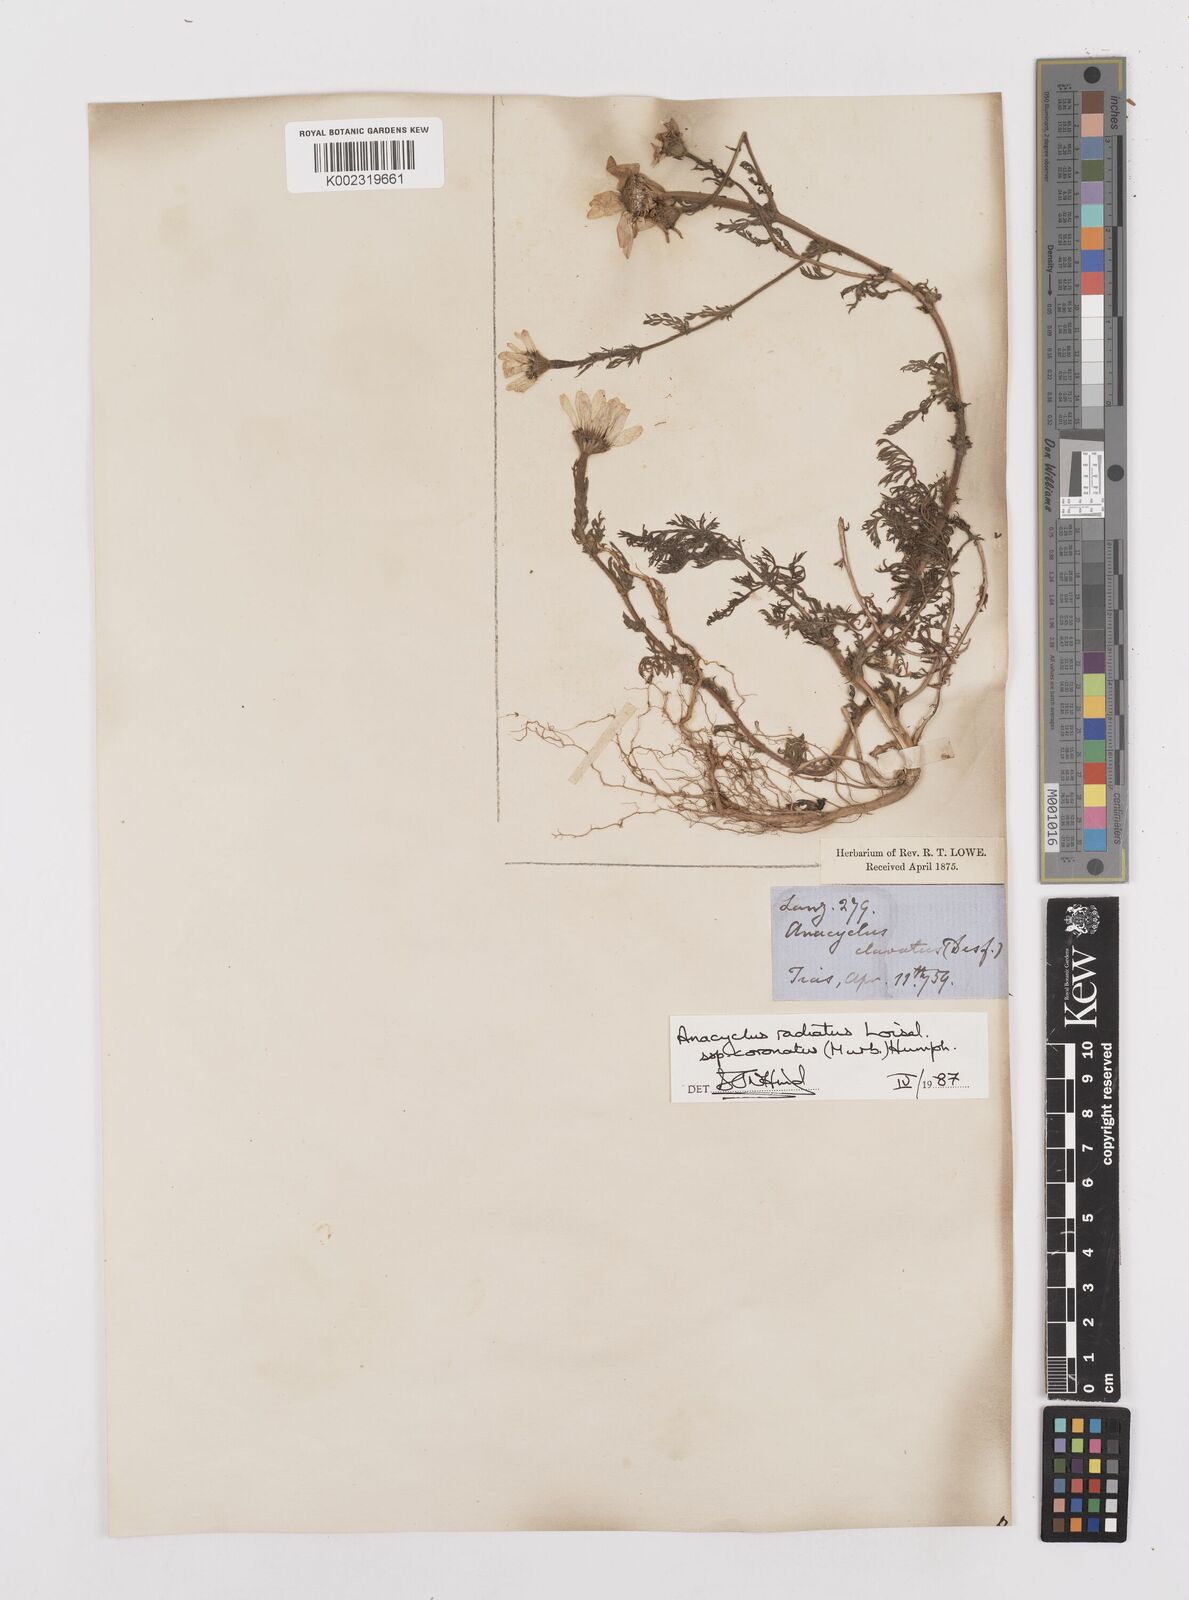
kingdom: Plantae
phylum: Tracheophyta
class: Magnoliopsida
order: Asterales
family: Asteraceae
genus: Anacyclus
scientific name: Anacyclus radiatus
